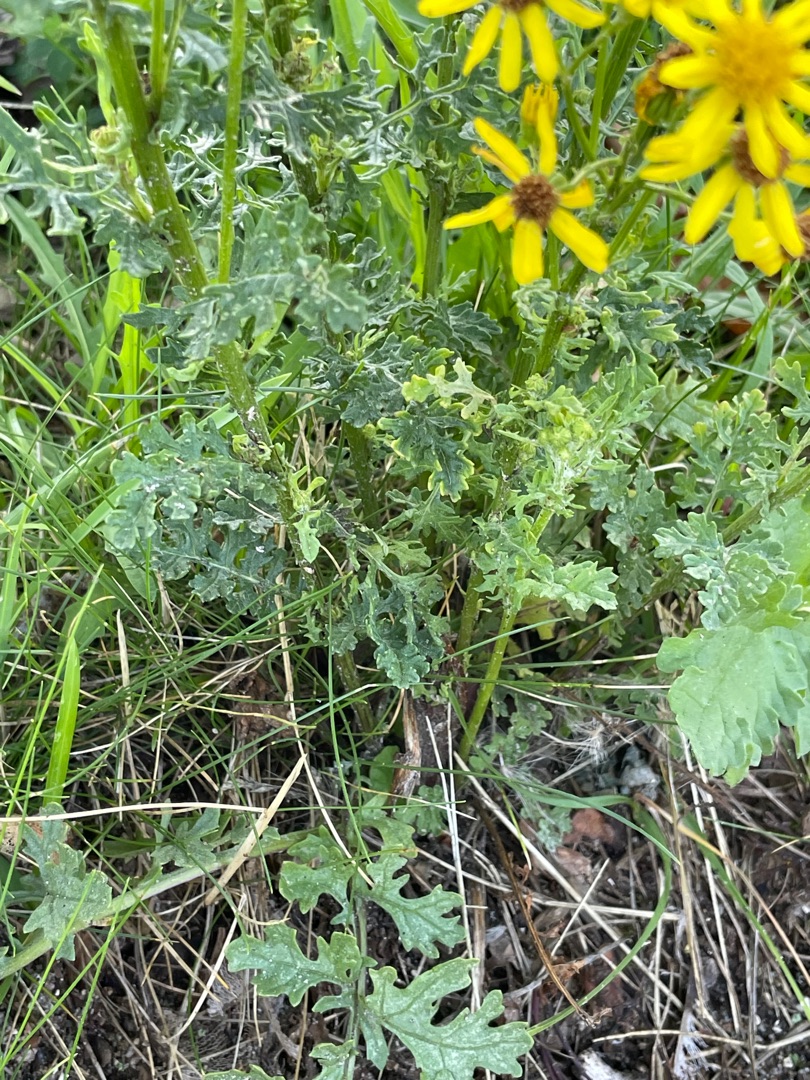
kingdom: Plantae
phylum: Tracheophyta
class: Magnoliopsida
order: Asterales
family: Asteraceae
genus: Jacobaea
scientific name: Jacobaea vulgaris
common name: Eng-brandbæger
